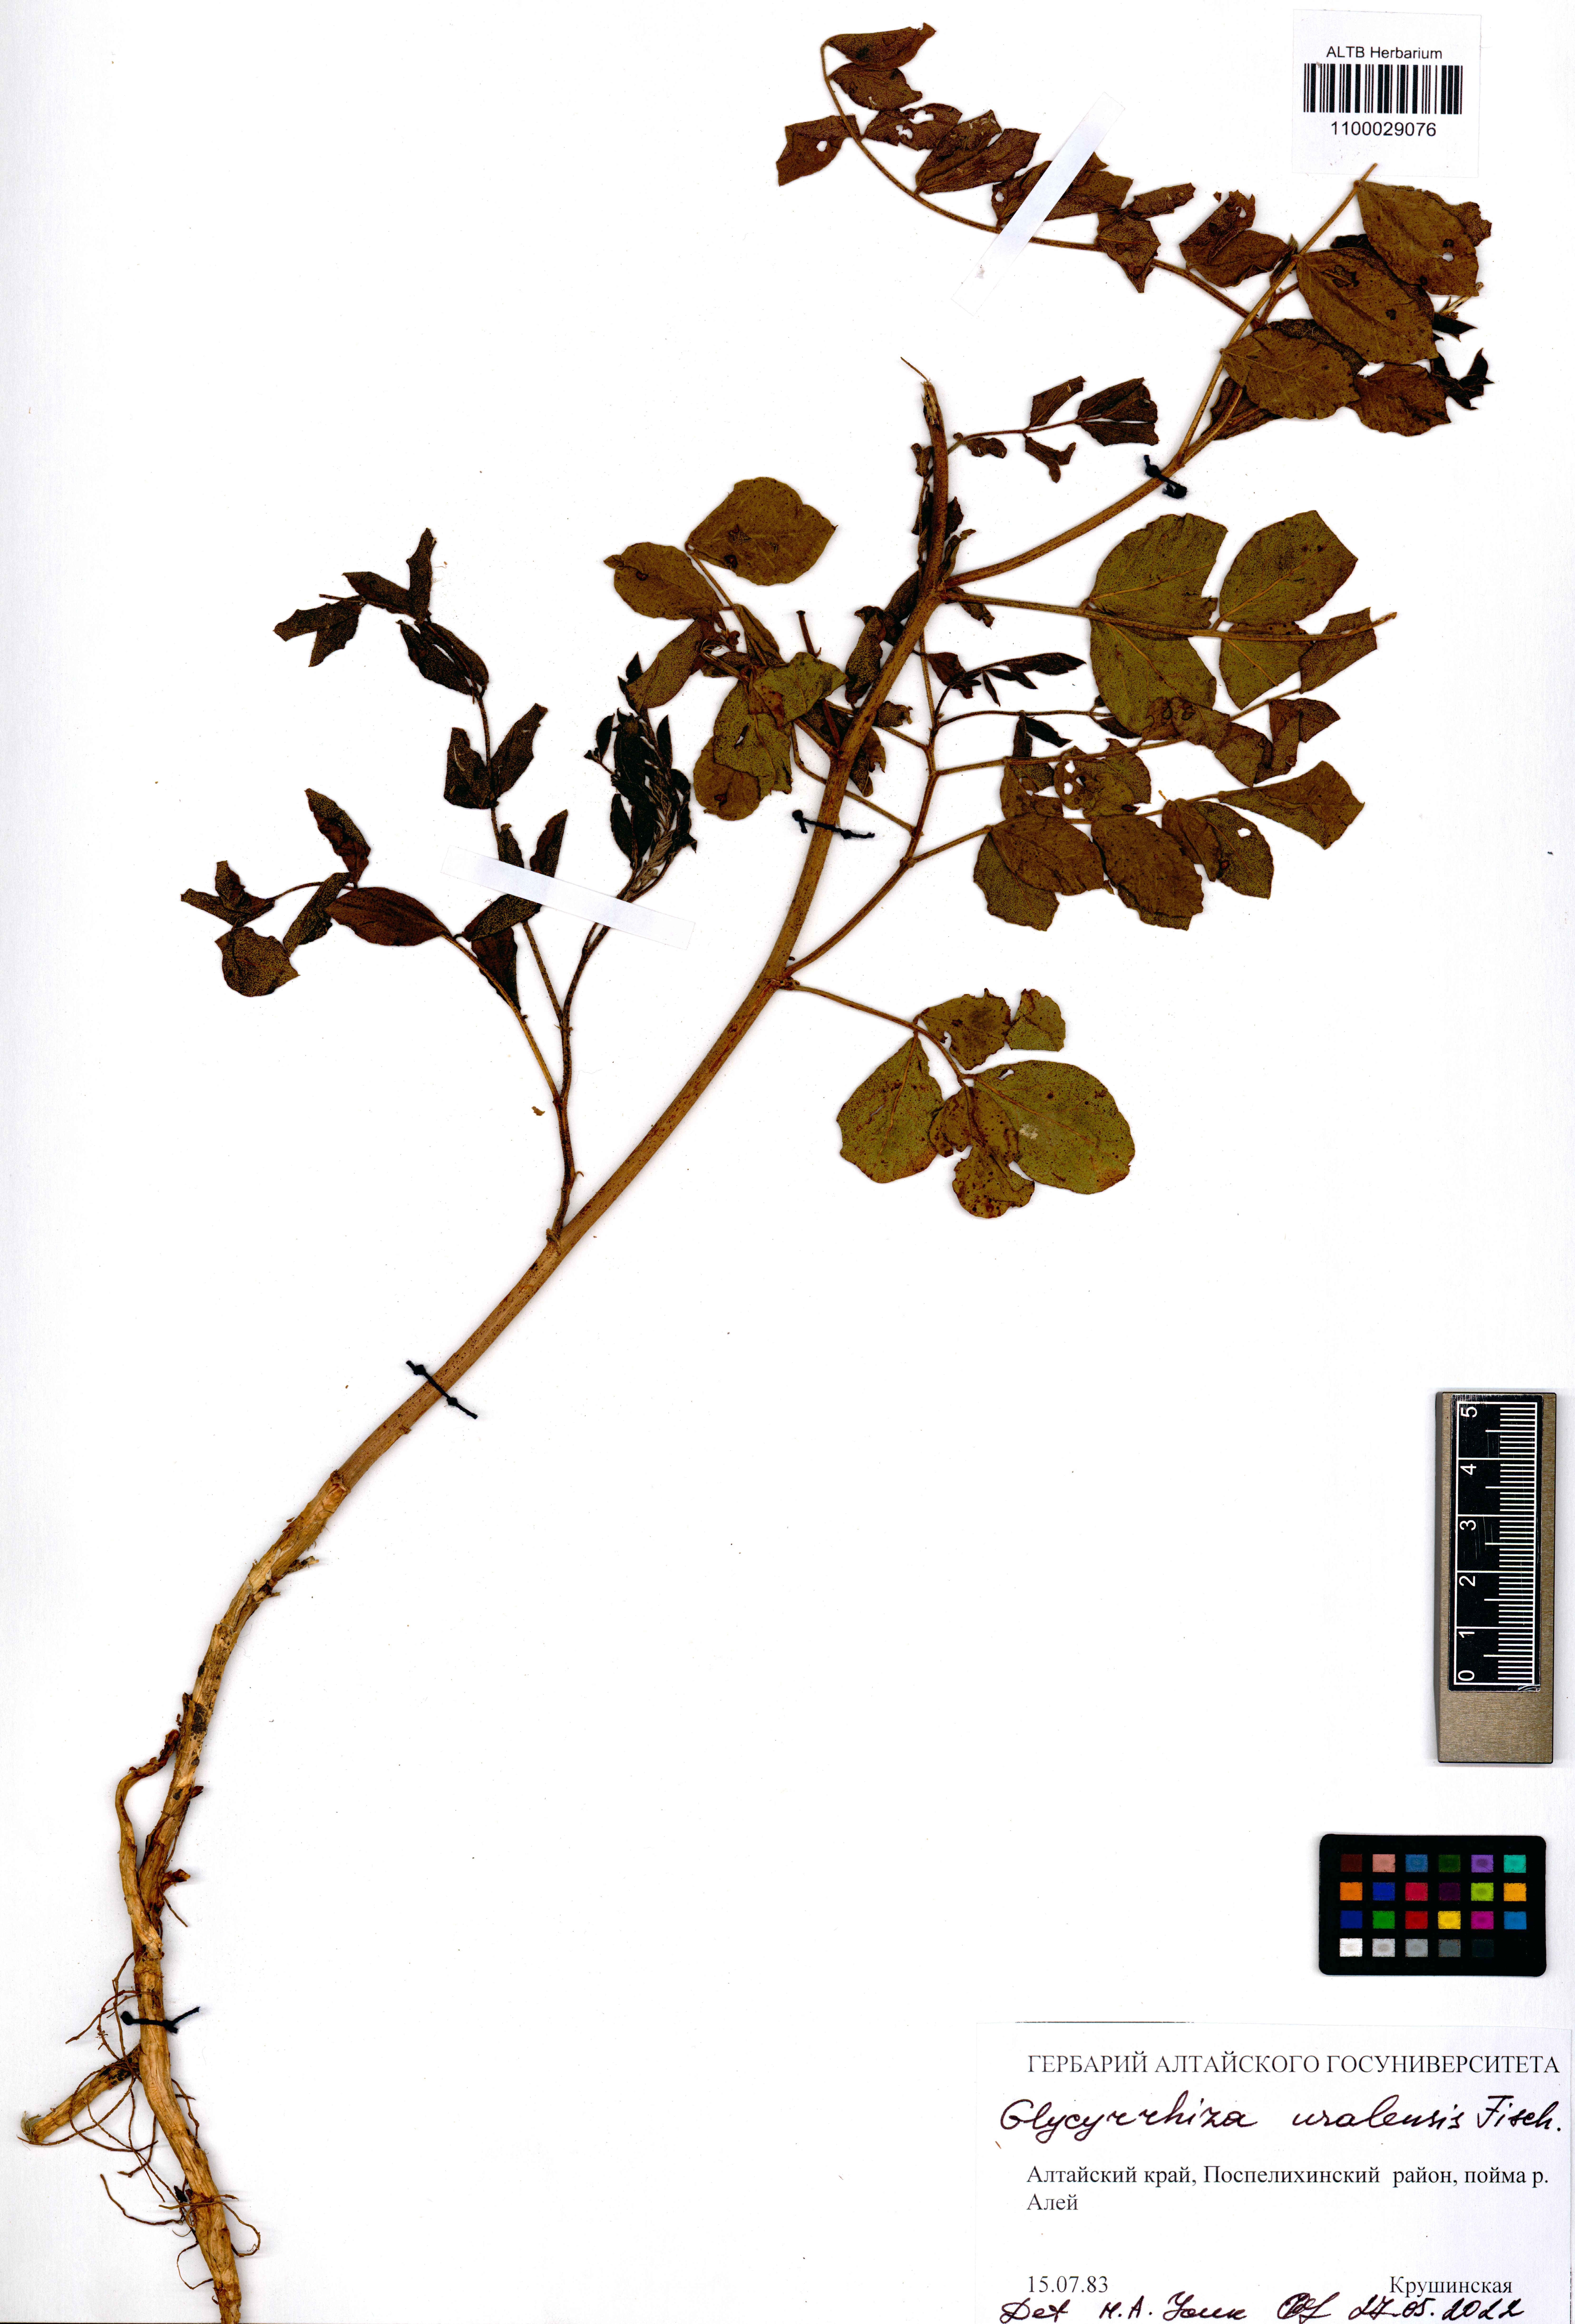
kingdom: Plantae
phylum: Tracheophyta
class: Magnoliopsida
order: Fabales
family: Fabaceae
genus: Glycyrrhiza
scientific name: Glycyrrhiza uralensis
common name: Chinese licorice
